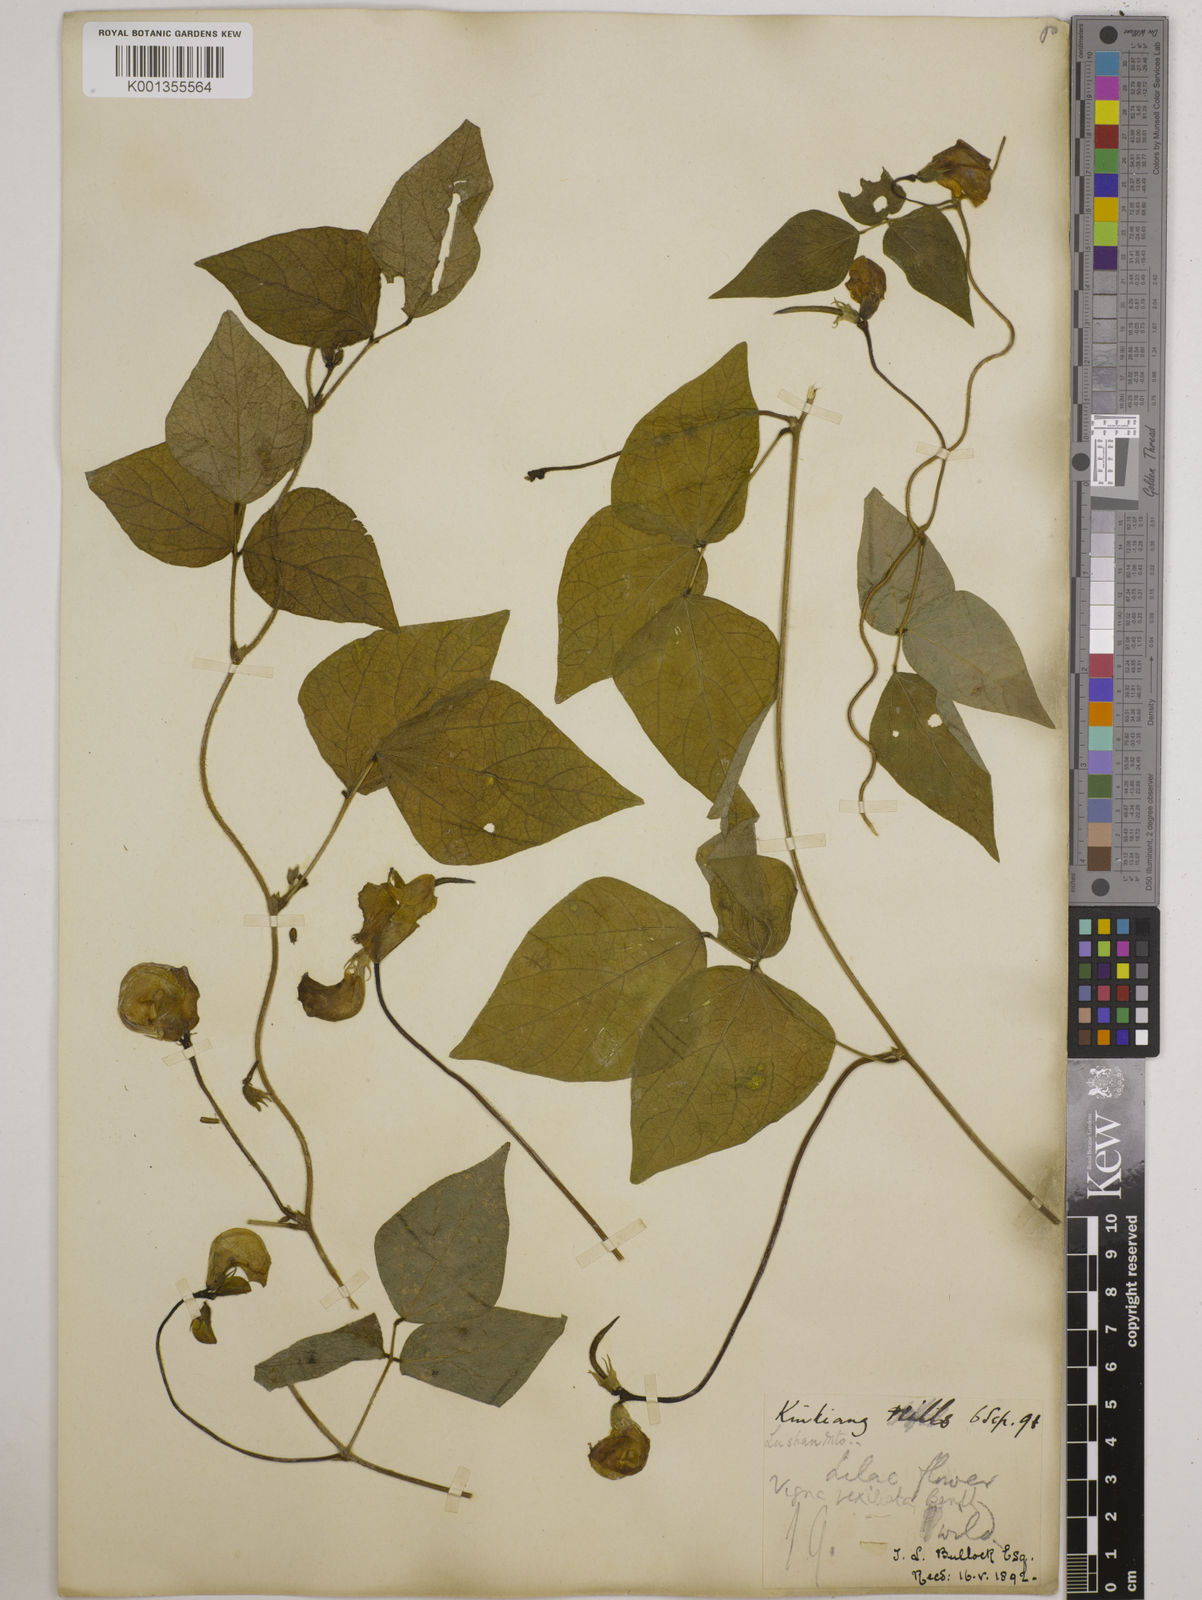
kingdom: Plantae
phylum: Tracheophyta
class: Magnoliopsida
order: Fabales
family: Fabaceae
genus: Vigna
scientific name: Vigna vexillata
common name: Zombi pea
